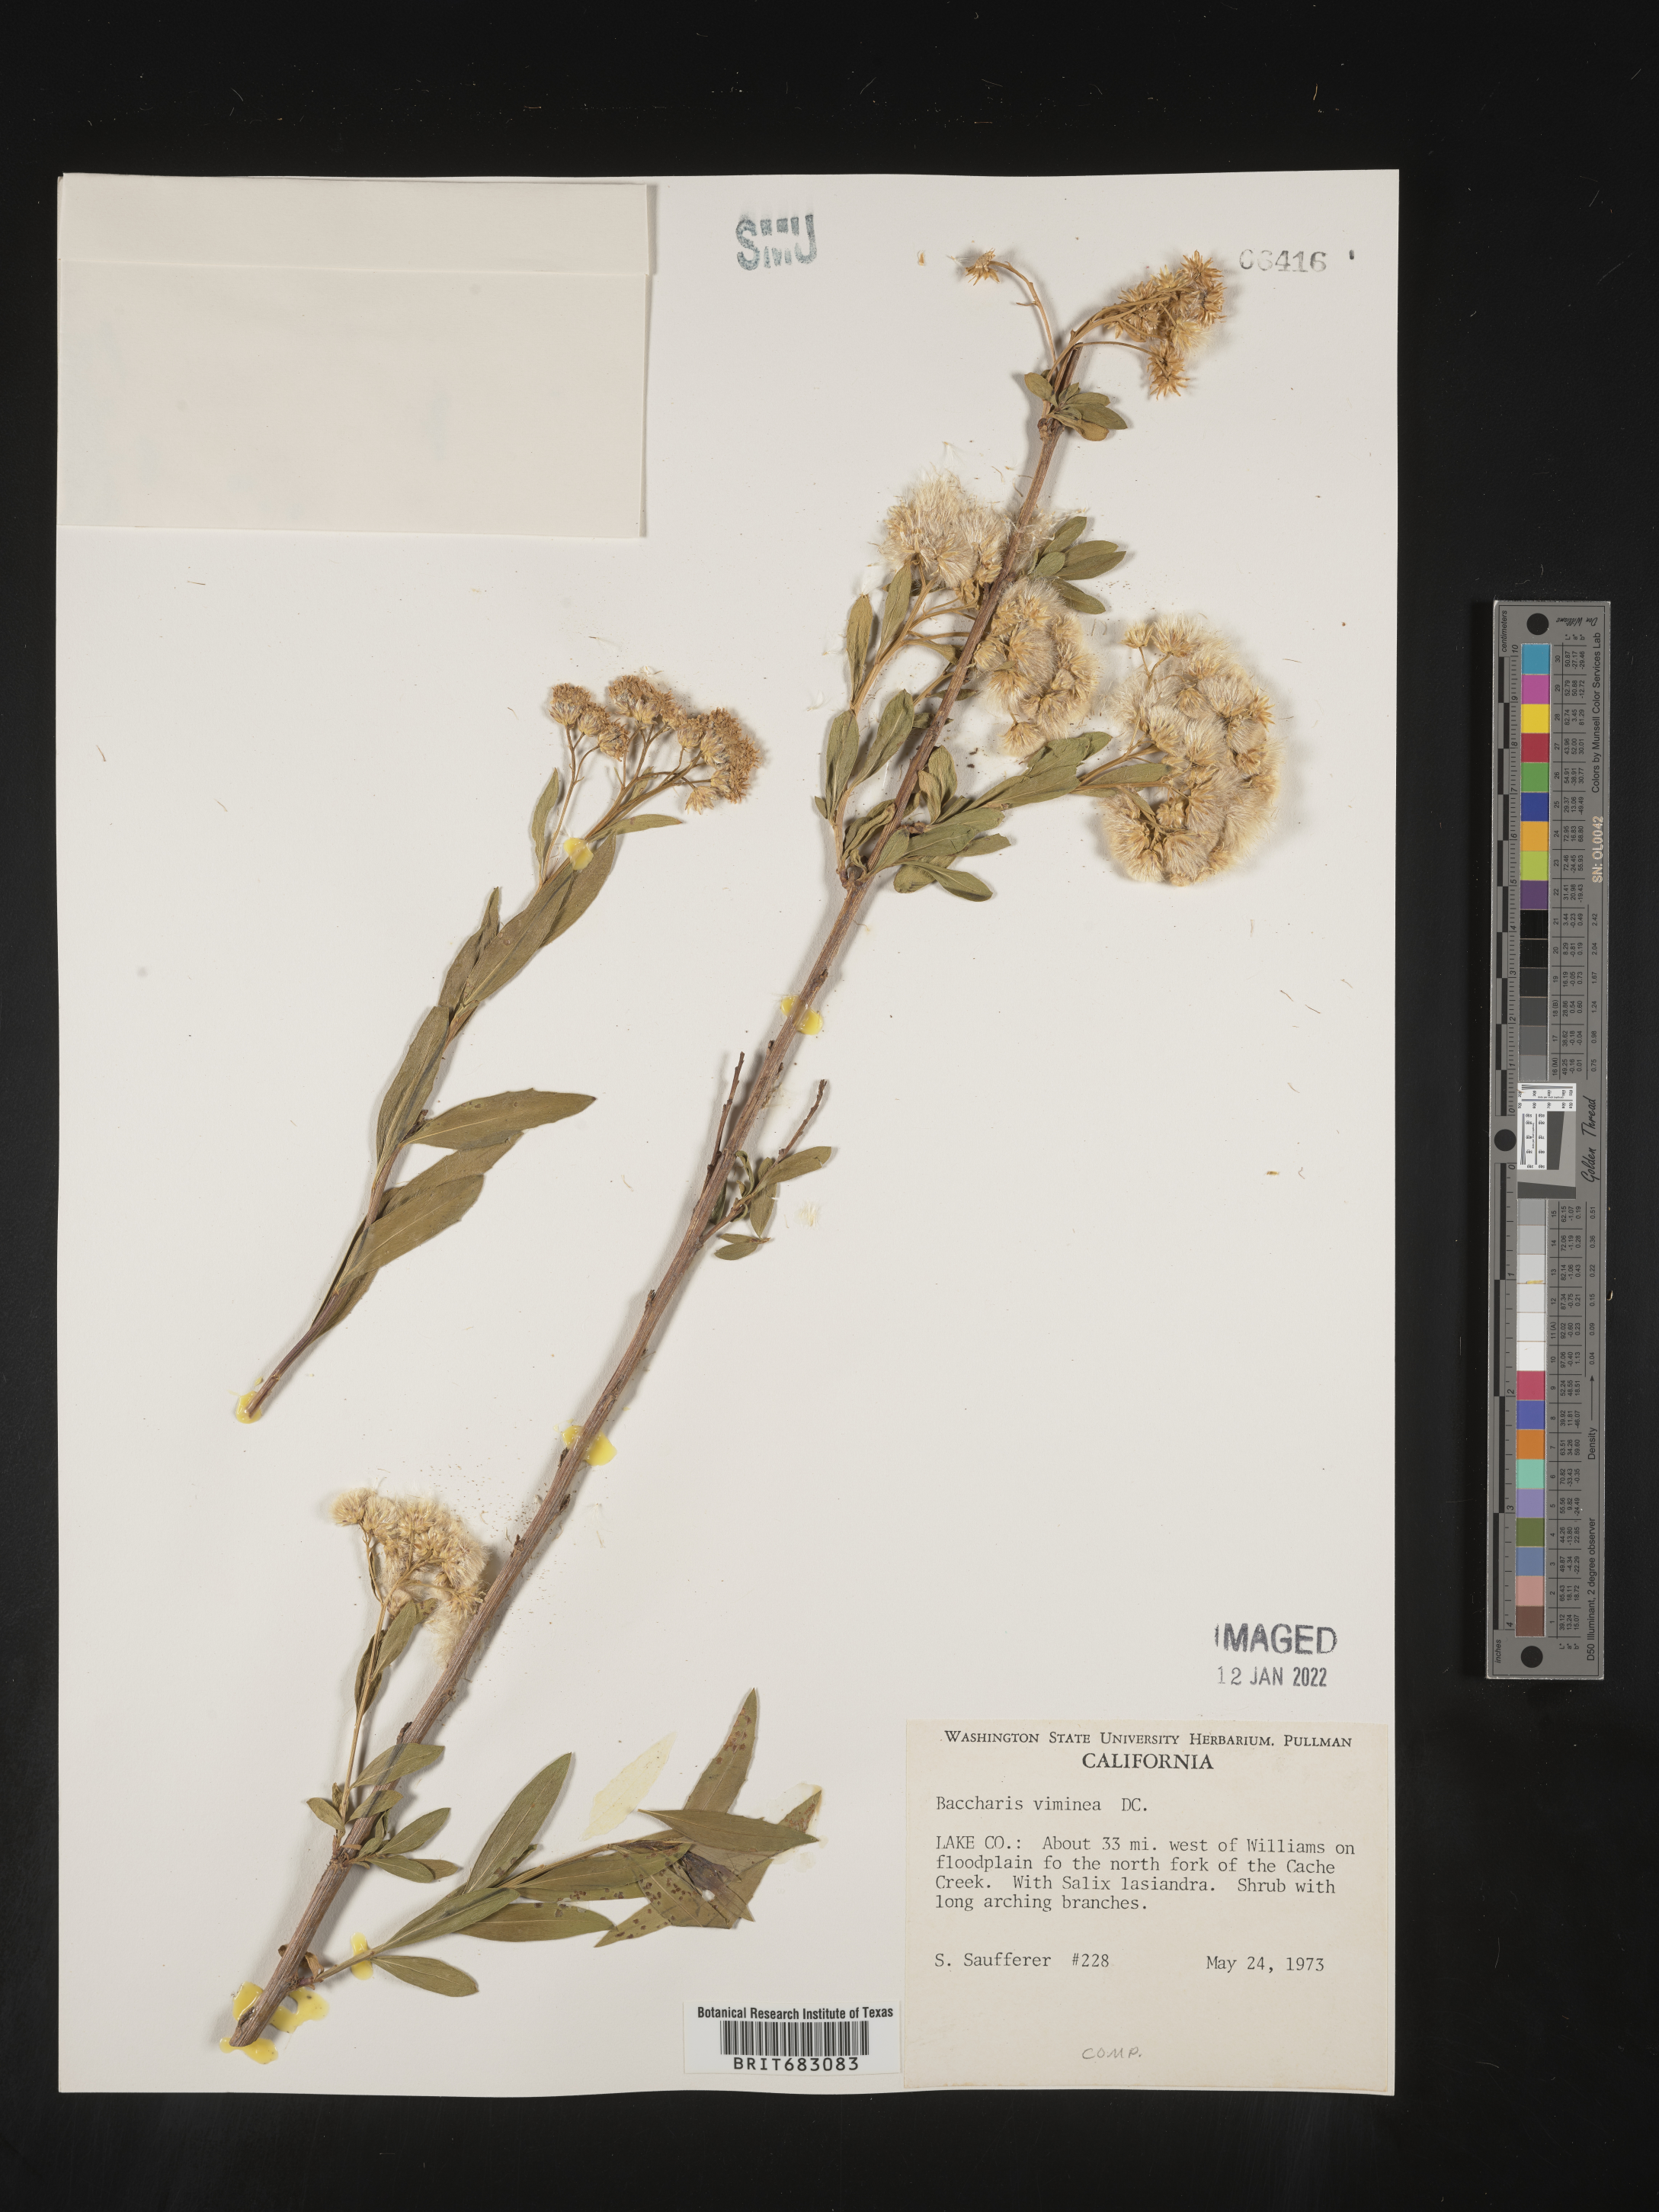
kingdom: Plantae
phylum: Tracheophyta
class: Magnoliopsida
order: Asterales
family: Asteraceae
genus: Baccharis
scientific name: Baccharis salicifolia
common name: Sticky baccharis
